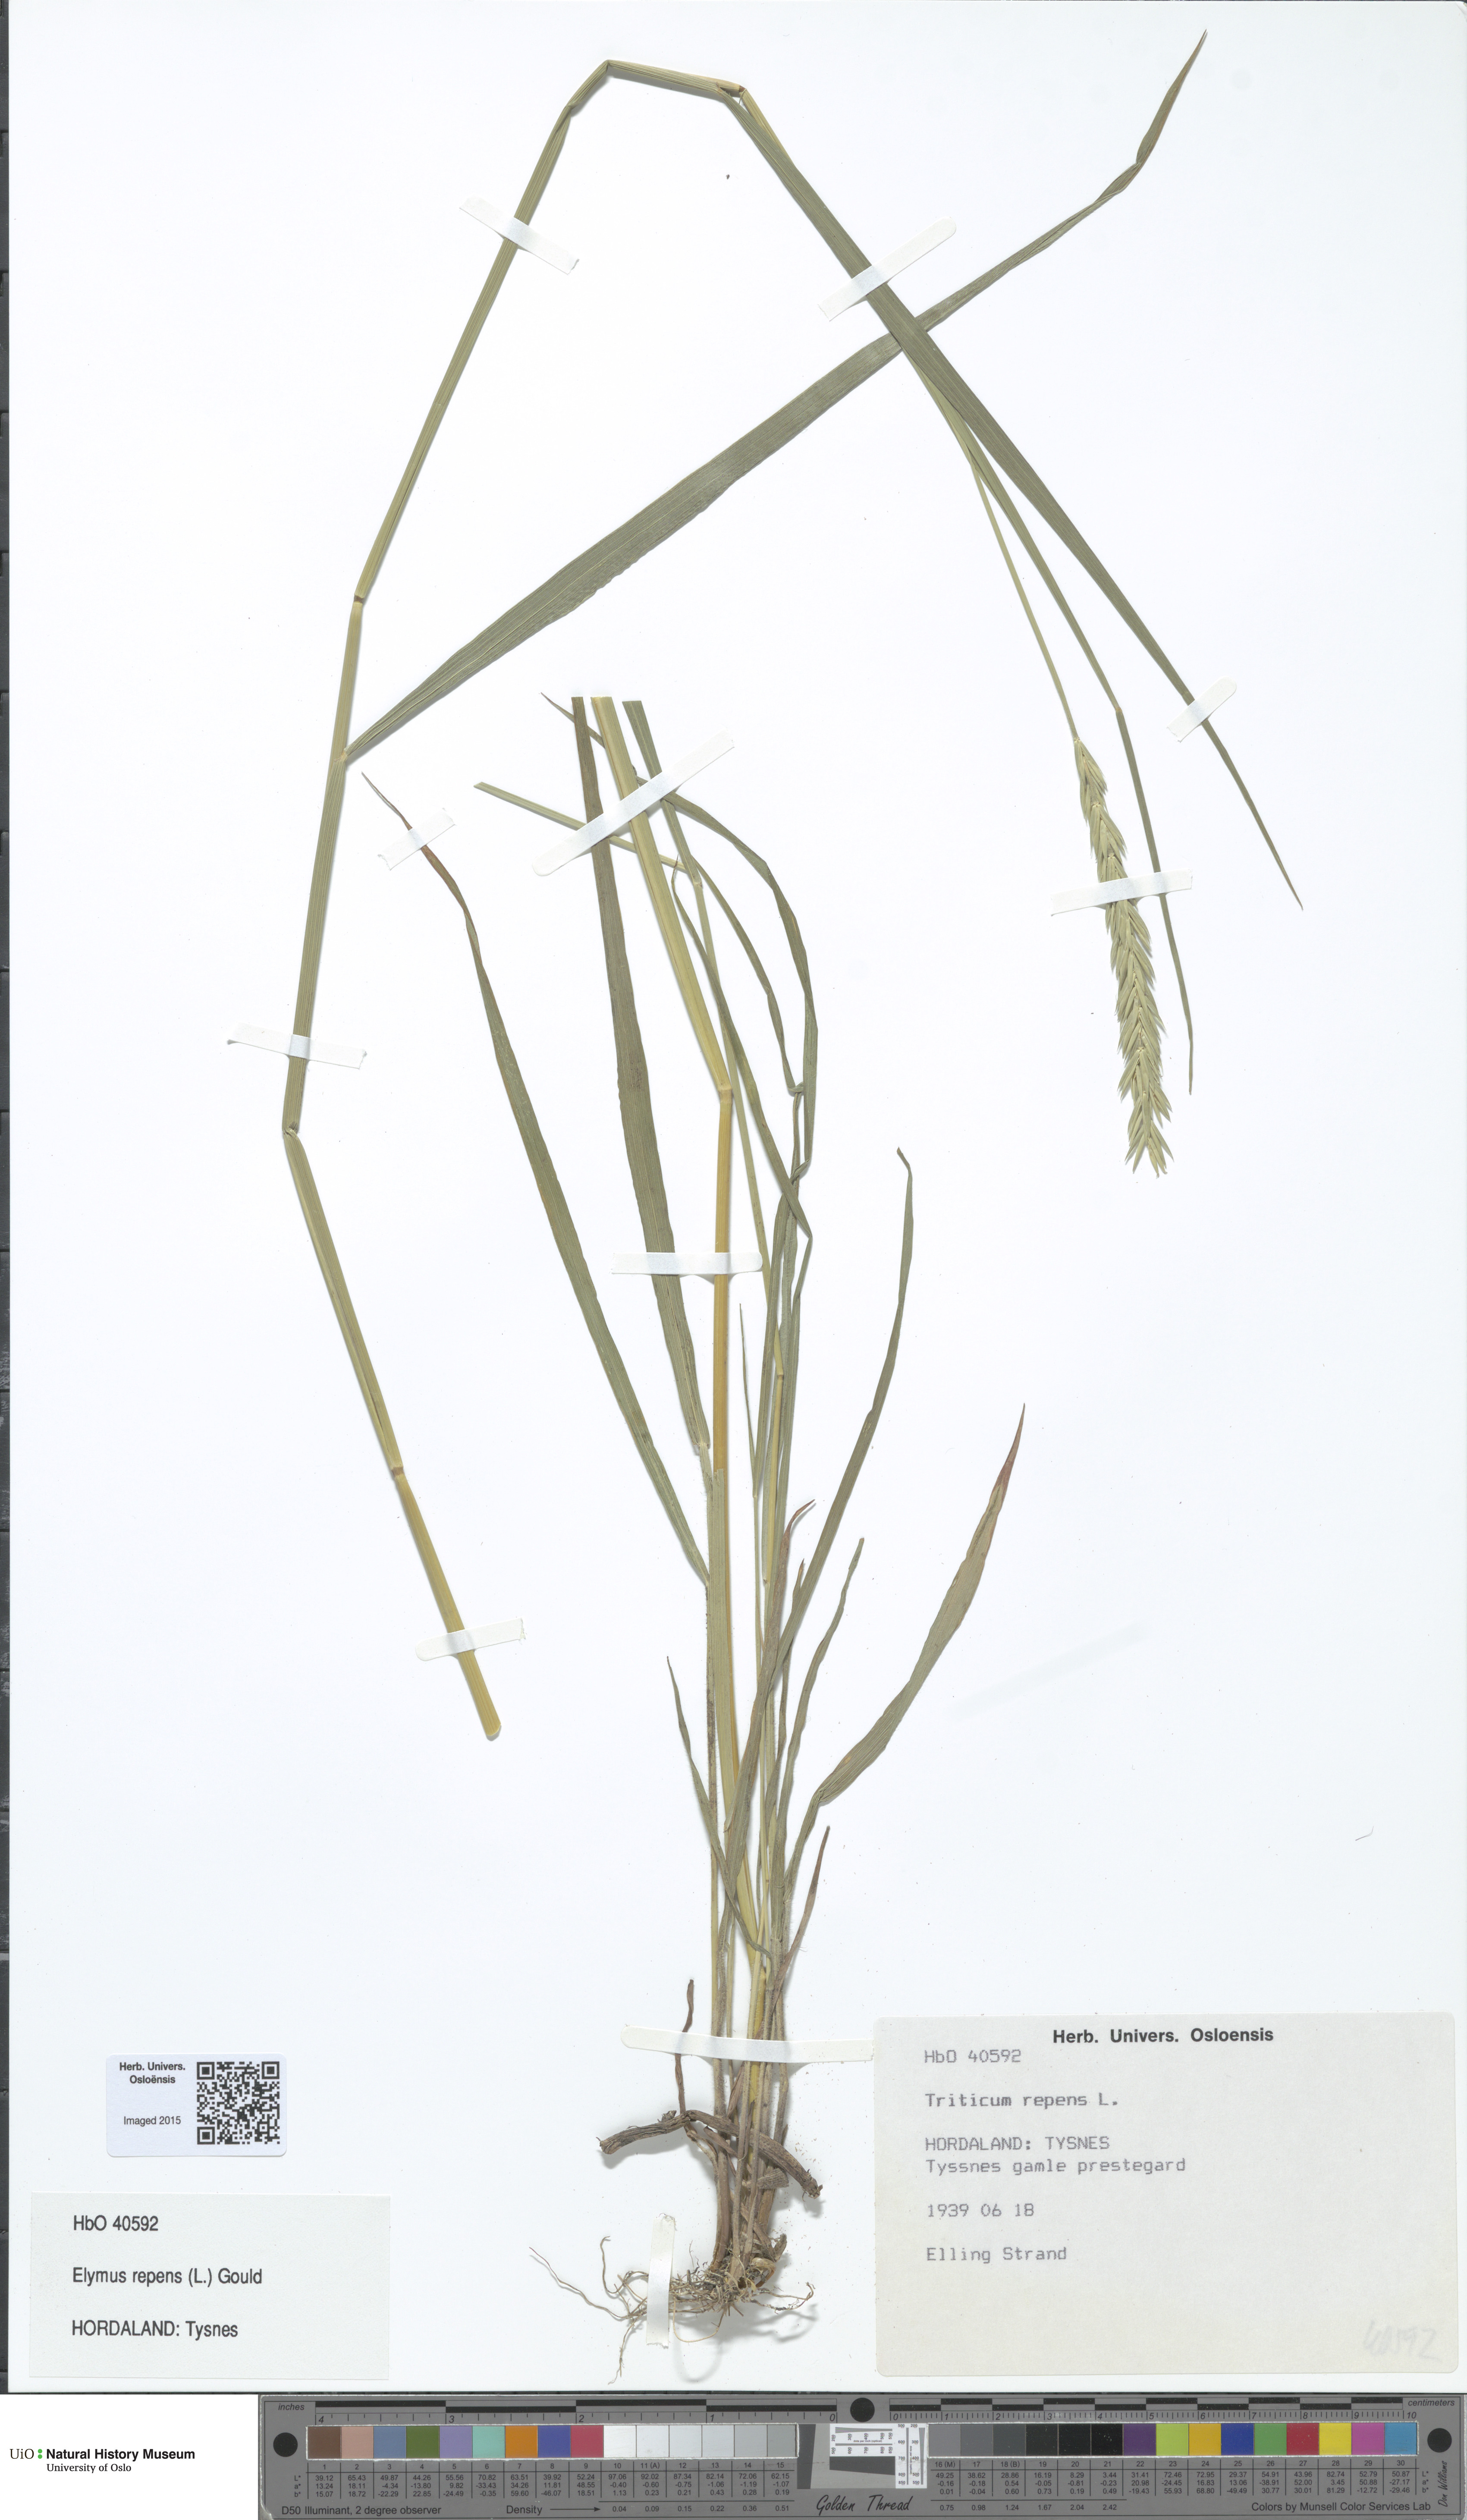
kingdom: Plantae
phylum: Tracheophyta
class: Liliopsida
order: Poales
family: Poaceae
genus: Elymus
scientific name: Elymus repens
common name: Quackgrass
